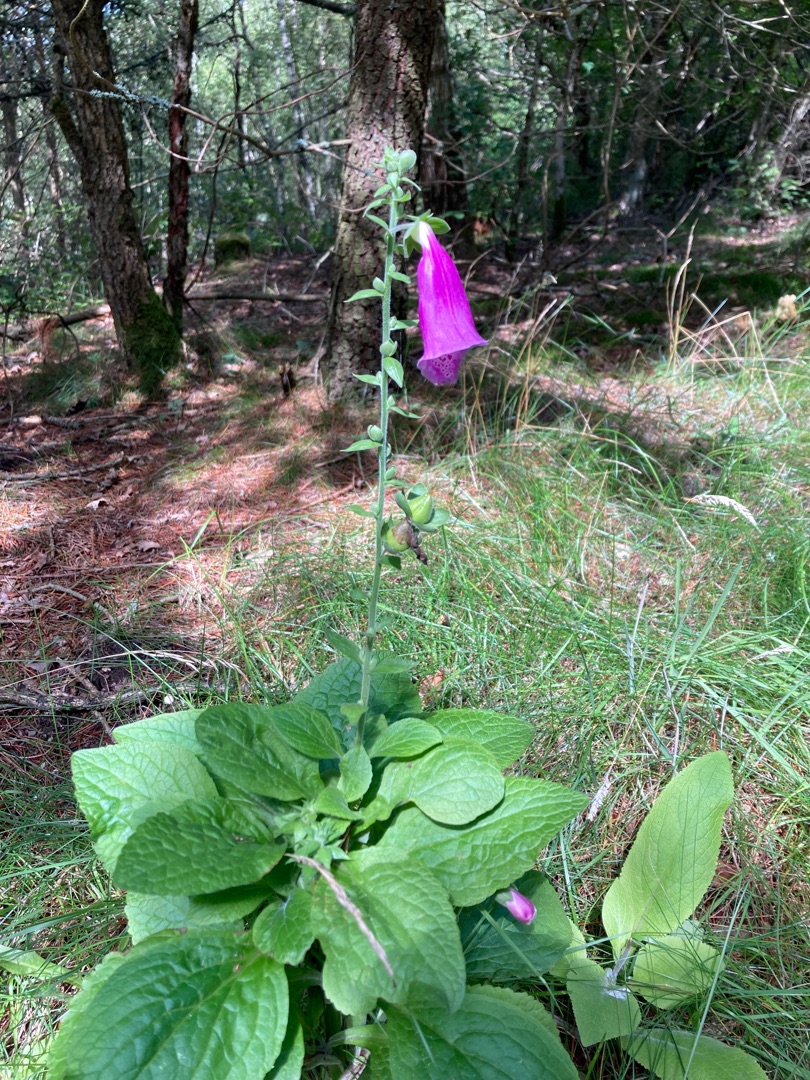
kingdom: Plantae
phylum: Tracheophyta
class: Magnoliopsida
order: Lamiales
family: Plantaginaceae
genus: Digitalis
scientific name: Digitalis purpurea
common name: Almindelig fingerbøl
